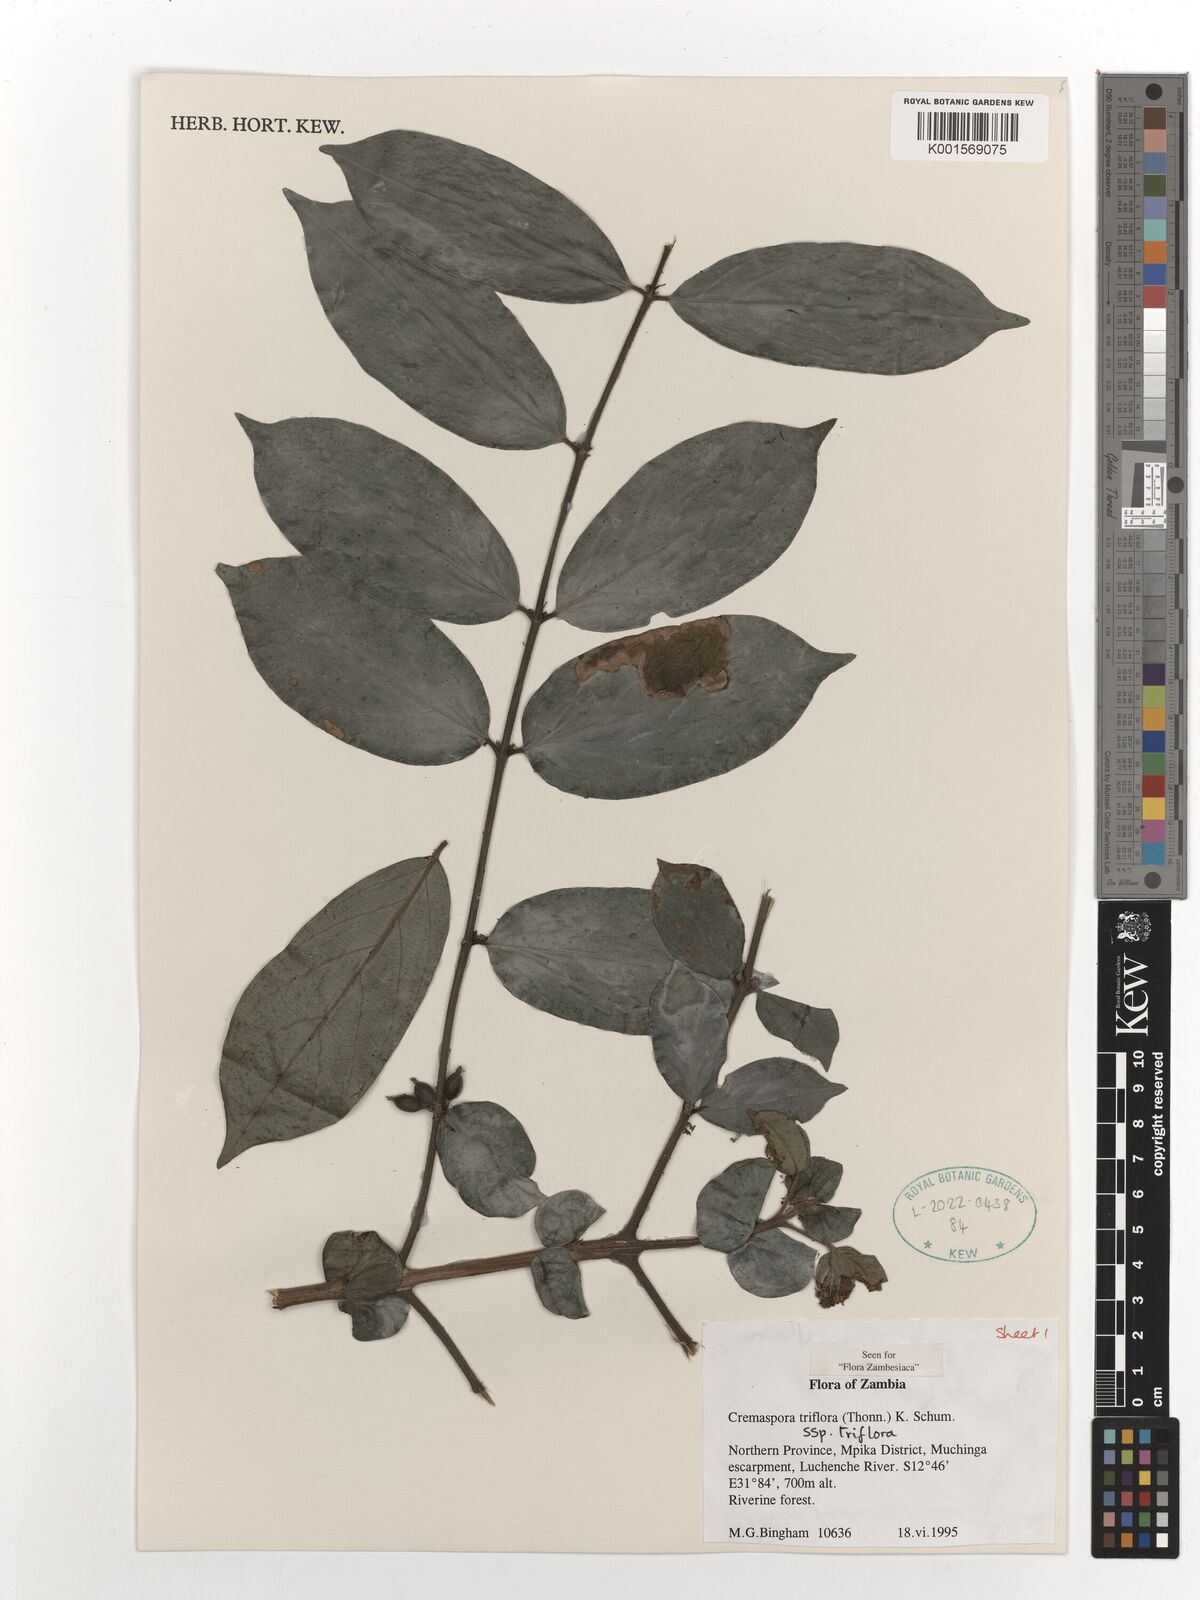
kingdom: Plantae
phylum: Tracheophyta
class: Magnoliopsida
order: Gentianales
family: Rubiaceae
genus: Cremaspora
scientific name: Cremaspora triflora
